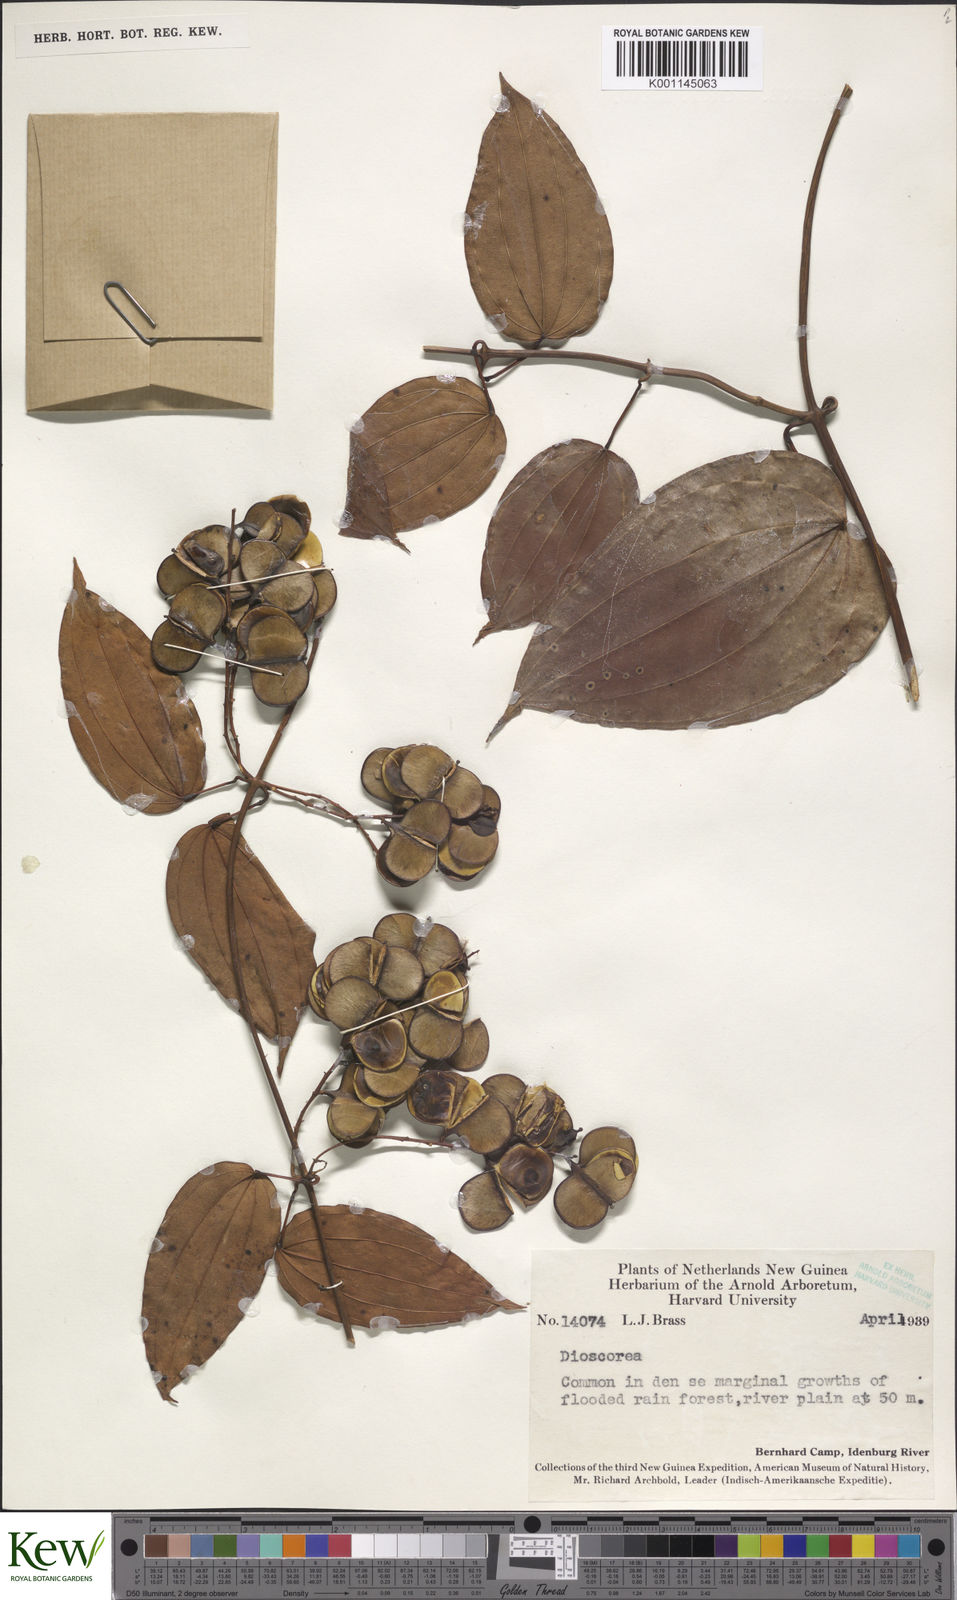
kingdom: Plantae
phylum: Tracheophyta
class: Liliopsida
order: Dioscoreales
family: Dioscoreaceae
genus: Dioscorea
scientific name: Dioscorea
